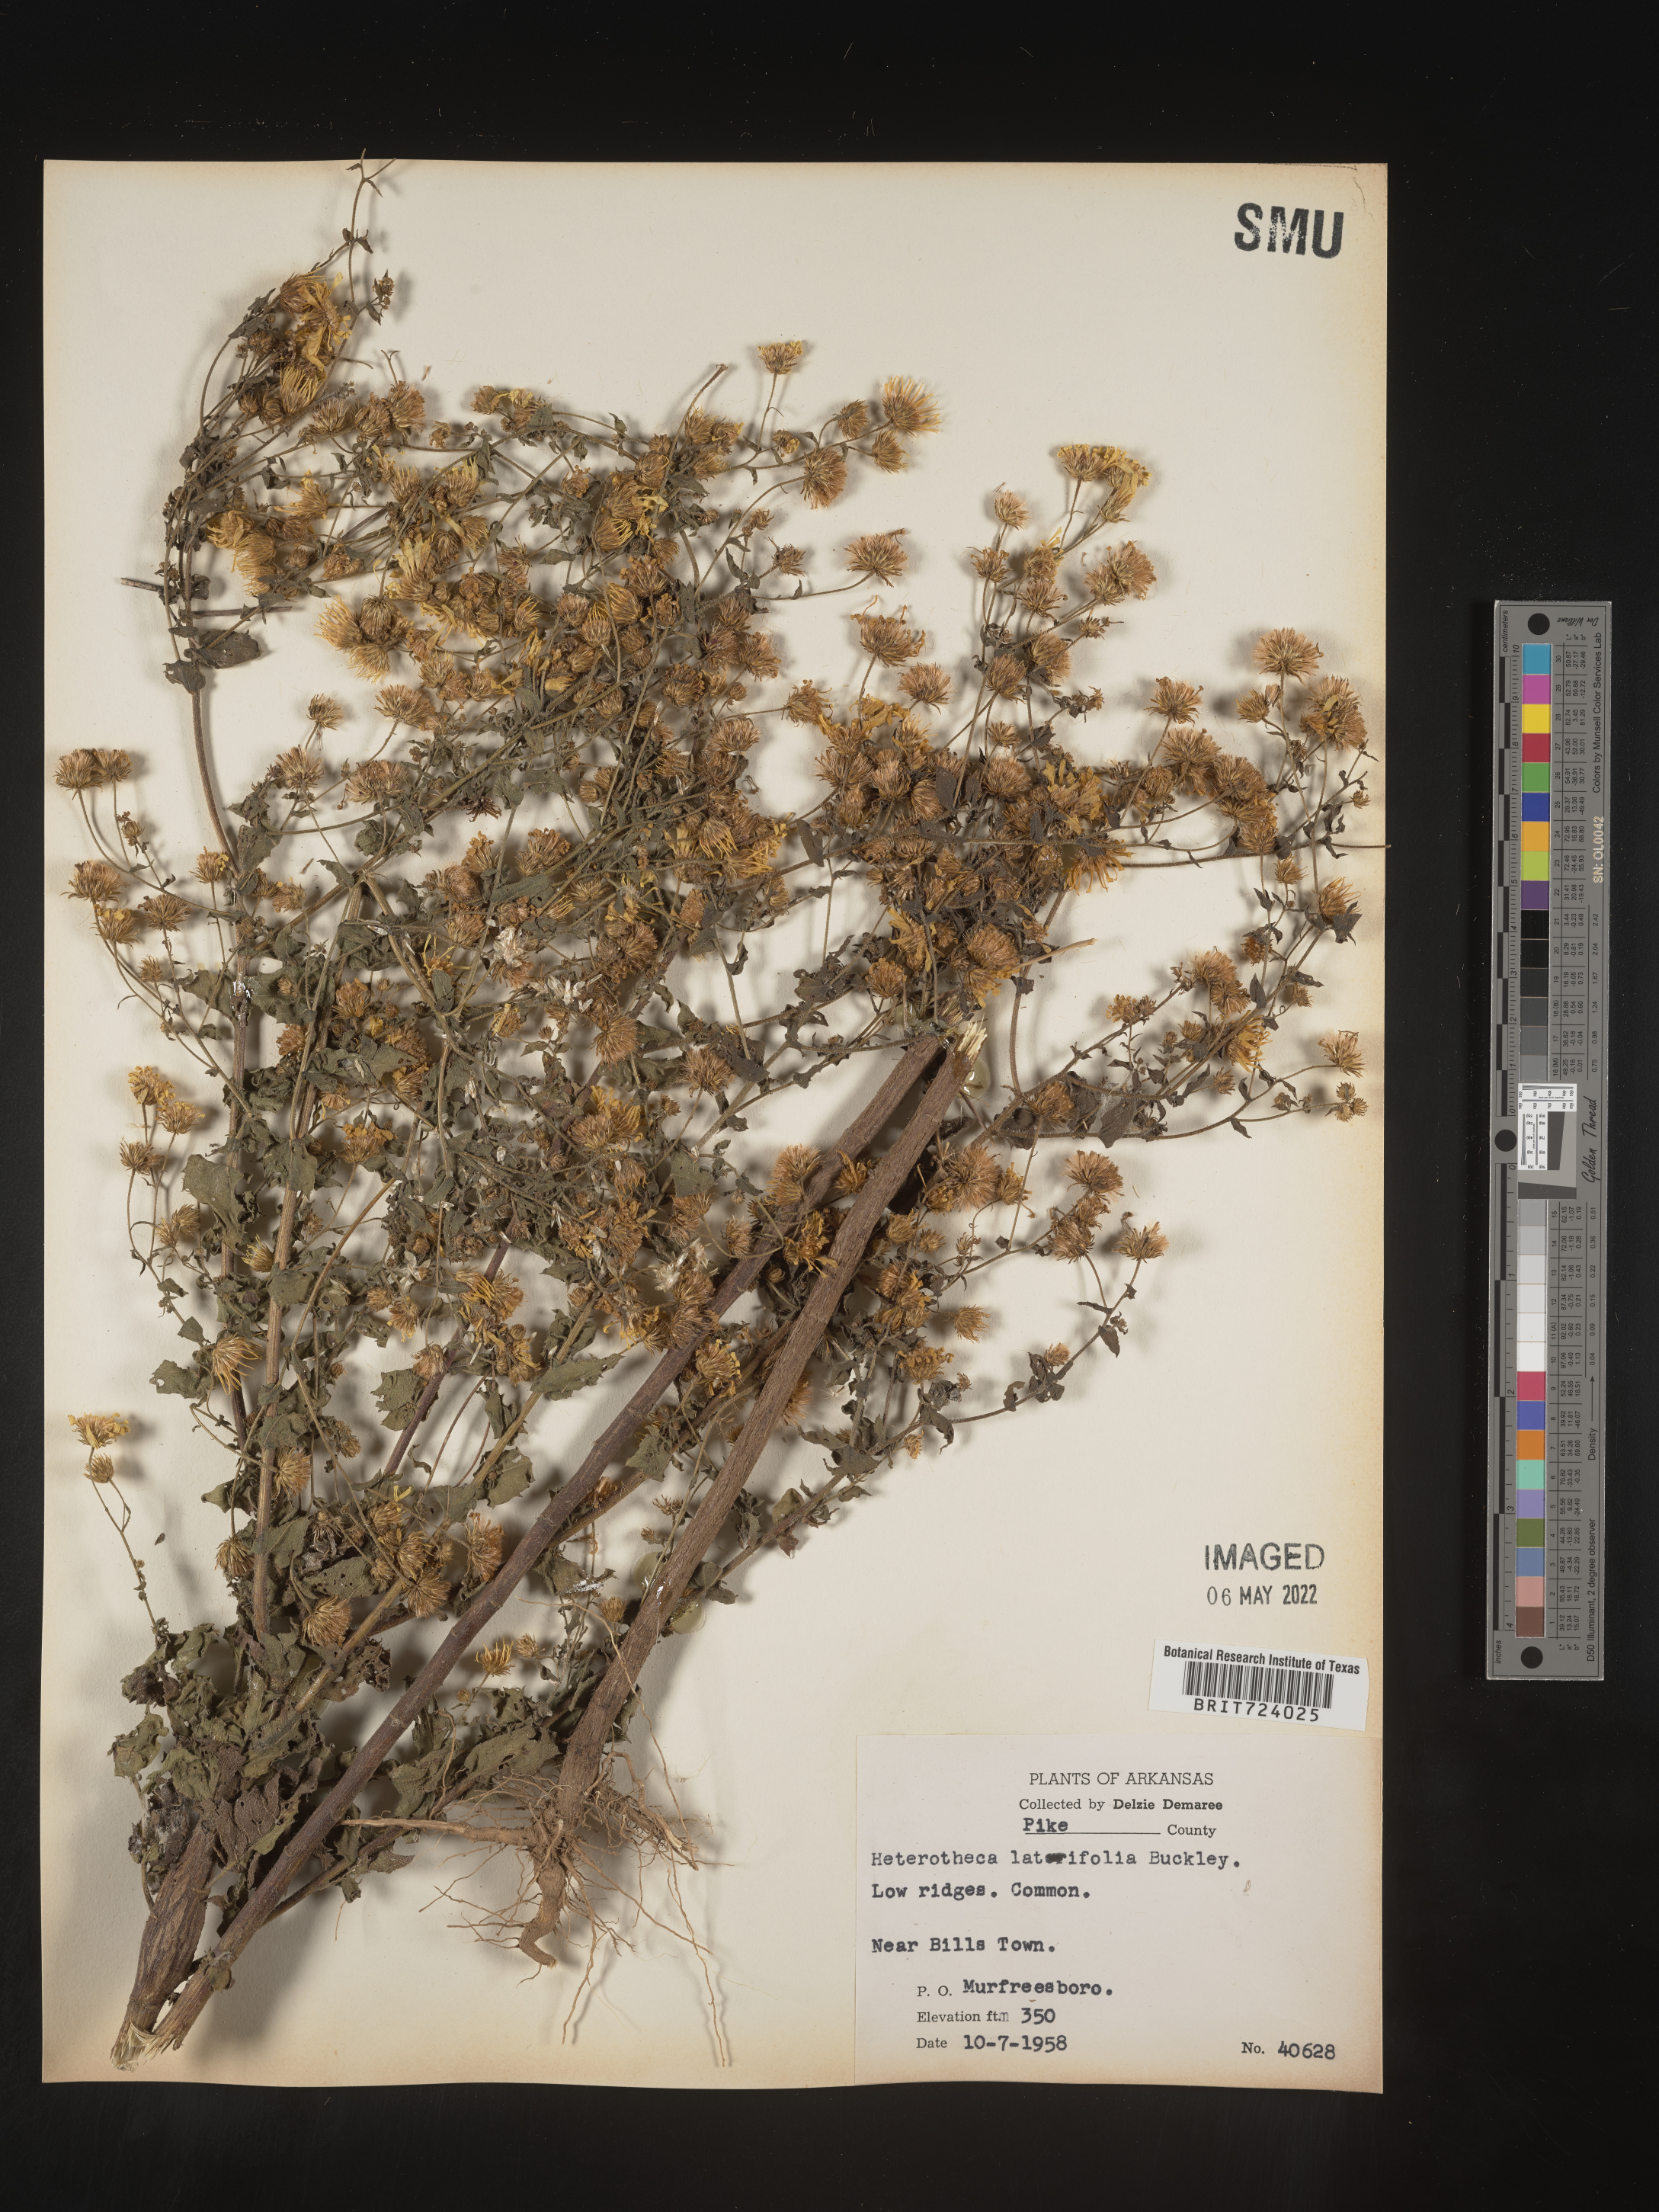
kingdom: Plantae
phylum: Tracheophyta
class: Magnoliopsida
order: Asterales
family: Asteraceae
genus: Heterotheca
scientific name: Heterotheca subaxillaris
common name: Camphorweed
